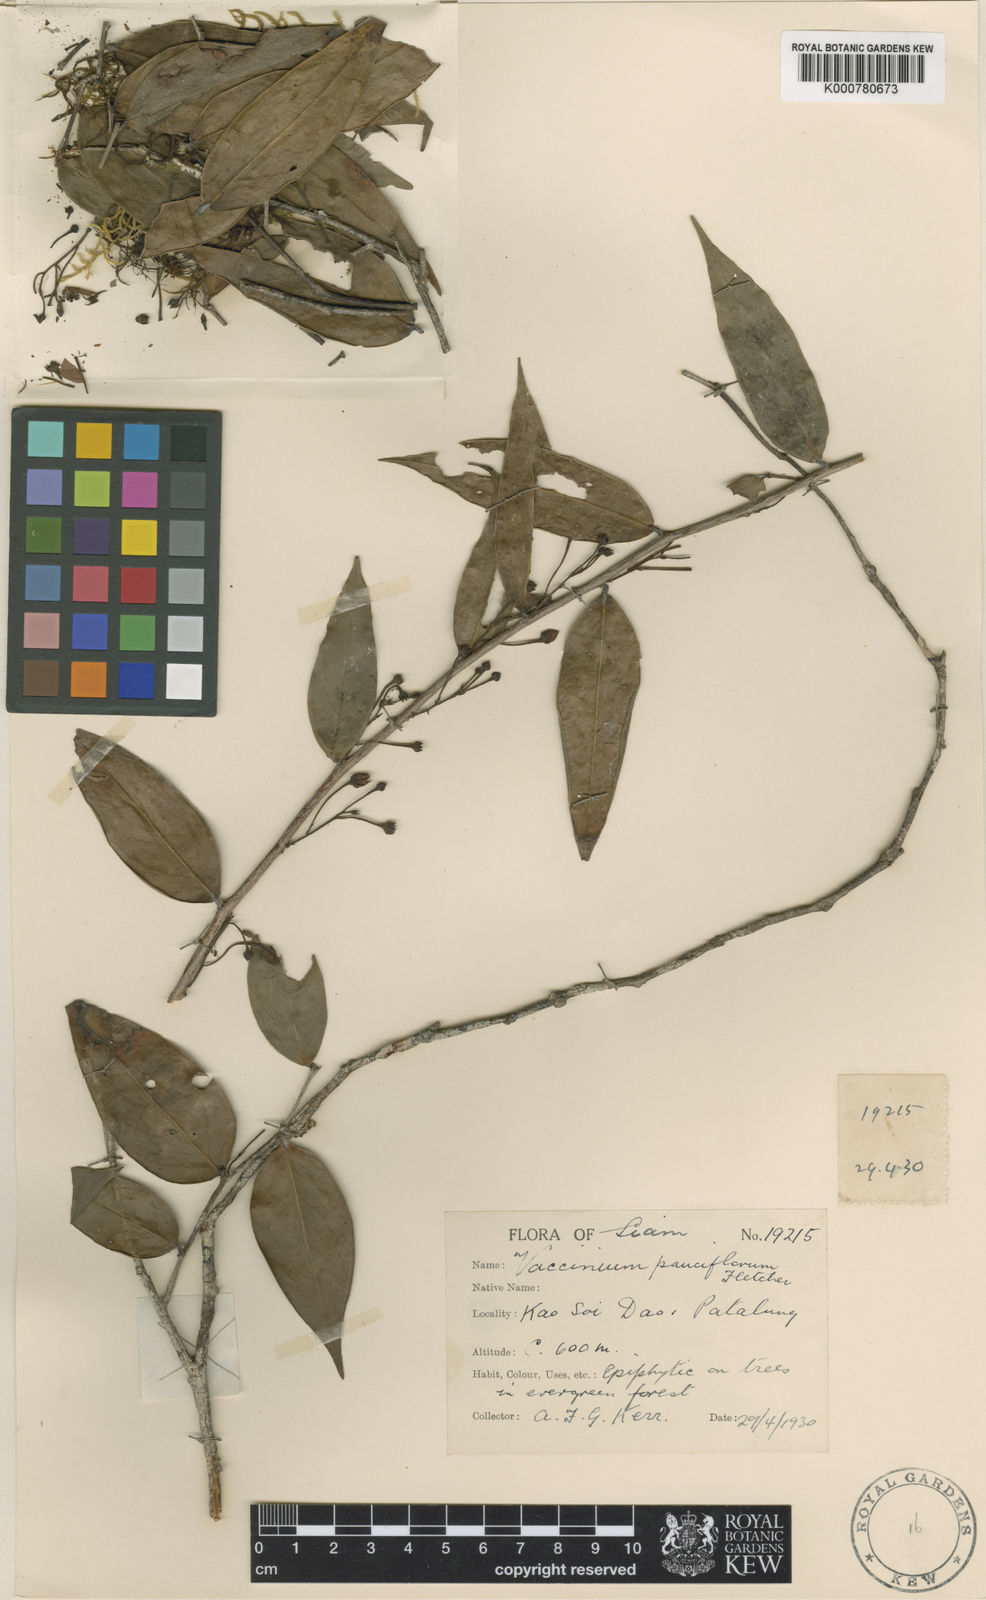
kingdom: Plantae
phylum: Tracheophyta
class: Magnoliopsida
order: Ericales
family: Ericaceae
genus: Vaccinium
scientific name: Vaccinium dialypetalum
